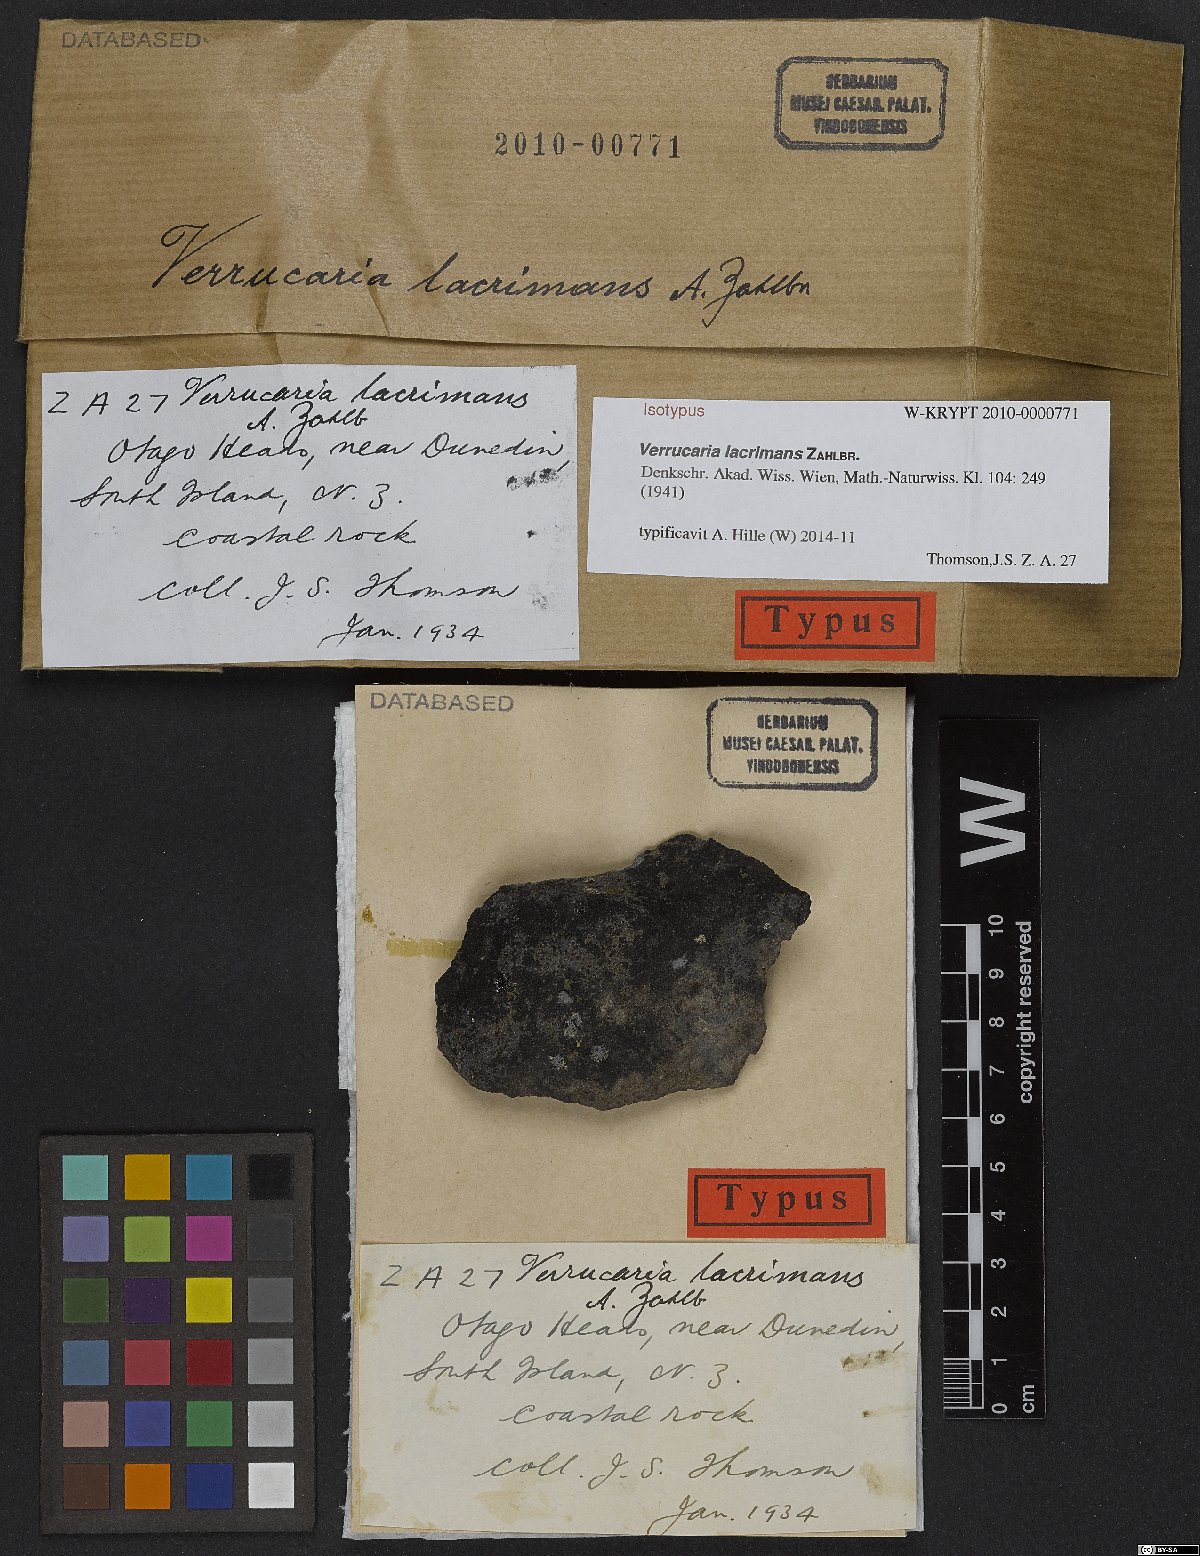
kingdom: Fungi
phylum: Ascomycota
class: Eurotiomycetes
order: Verrucariales
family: Verrucariaceae
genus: Verrucaria
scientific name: Verrucaria
